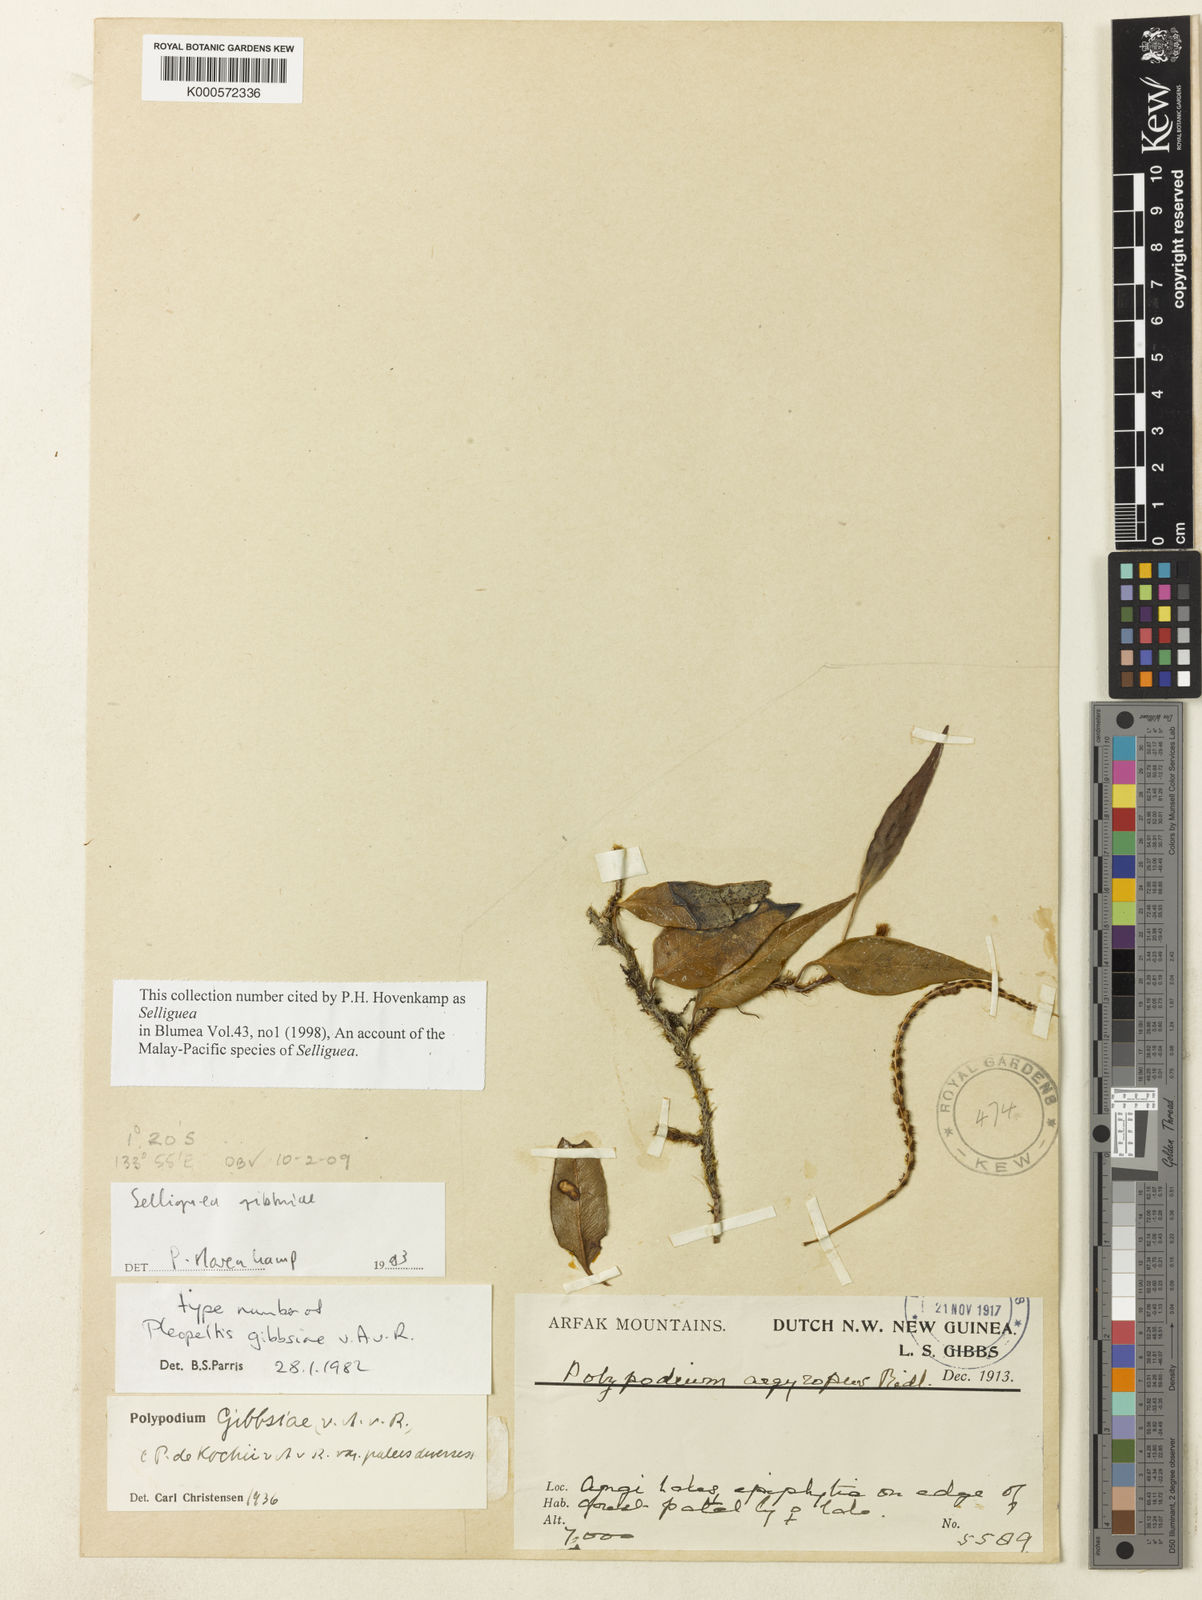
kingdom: Plantae
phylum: Tracheophyta
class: Polypodiopsida
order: Polypodiales
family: Polypodiaceae
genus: Selliguea
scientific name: Selliguea lauterbachii
